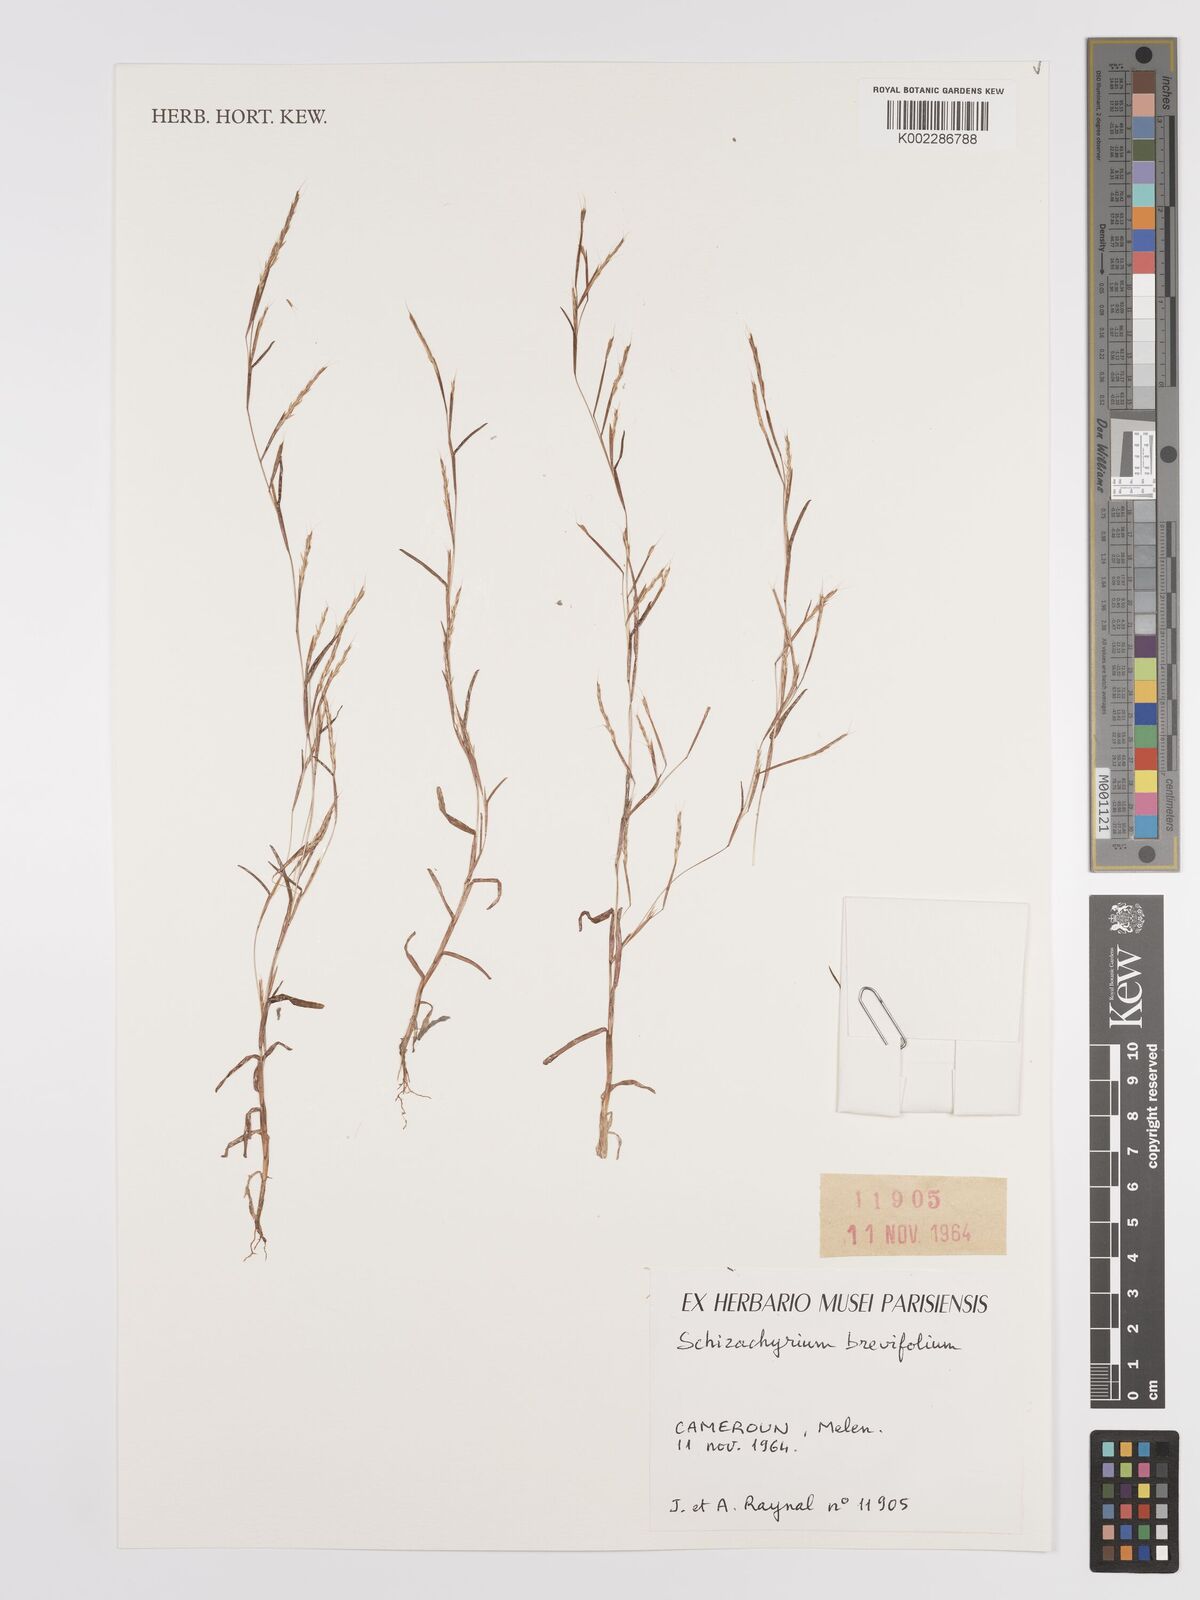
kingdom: Plantae
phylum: Tracheophyta
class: Liliopsida
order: Poales
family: Poaceae
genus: Schizachyrium
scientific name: Schizachyrium brevifolium
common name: Serillo dulce
